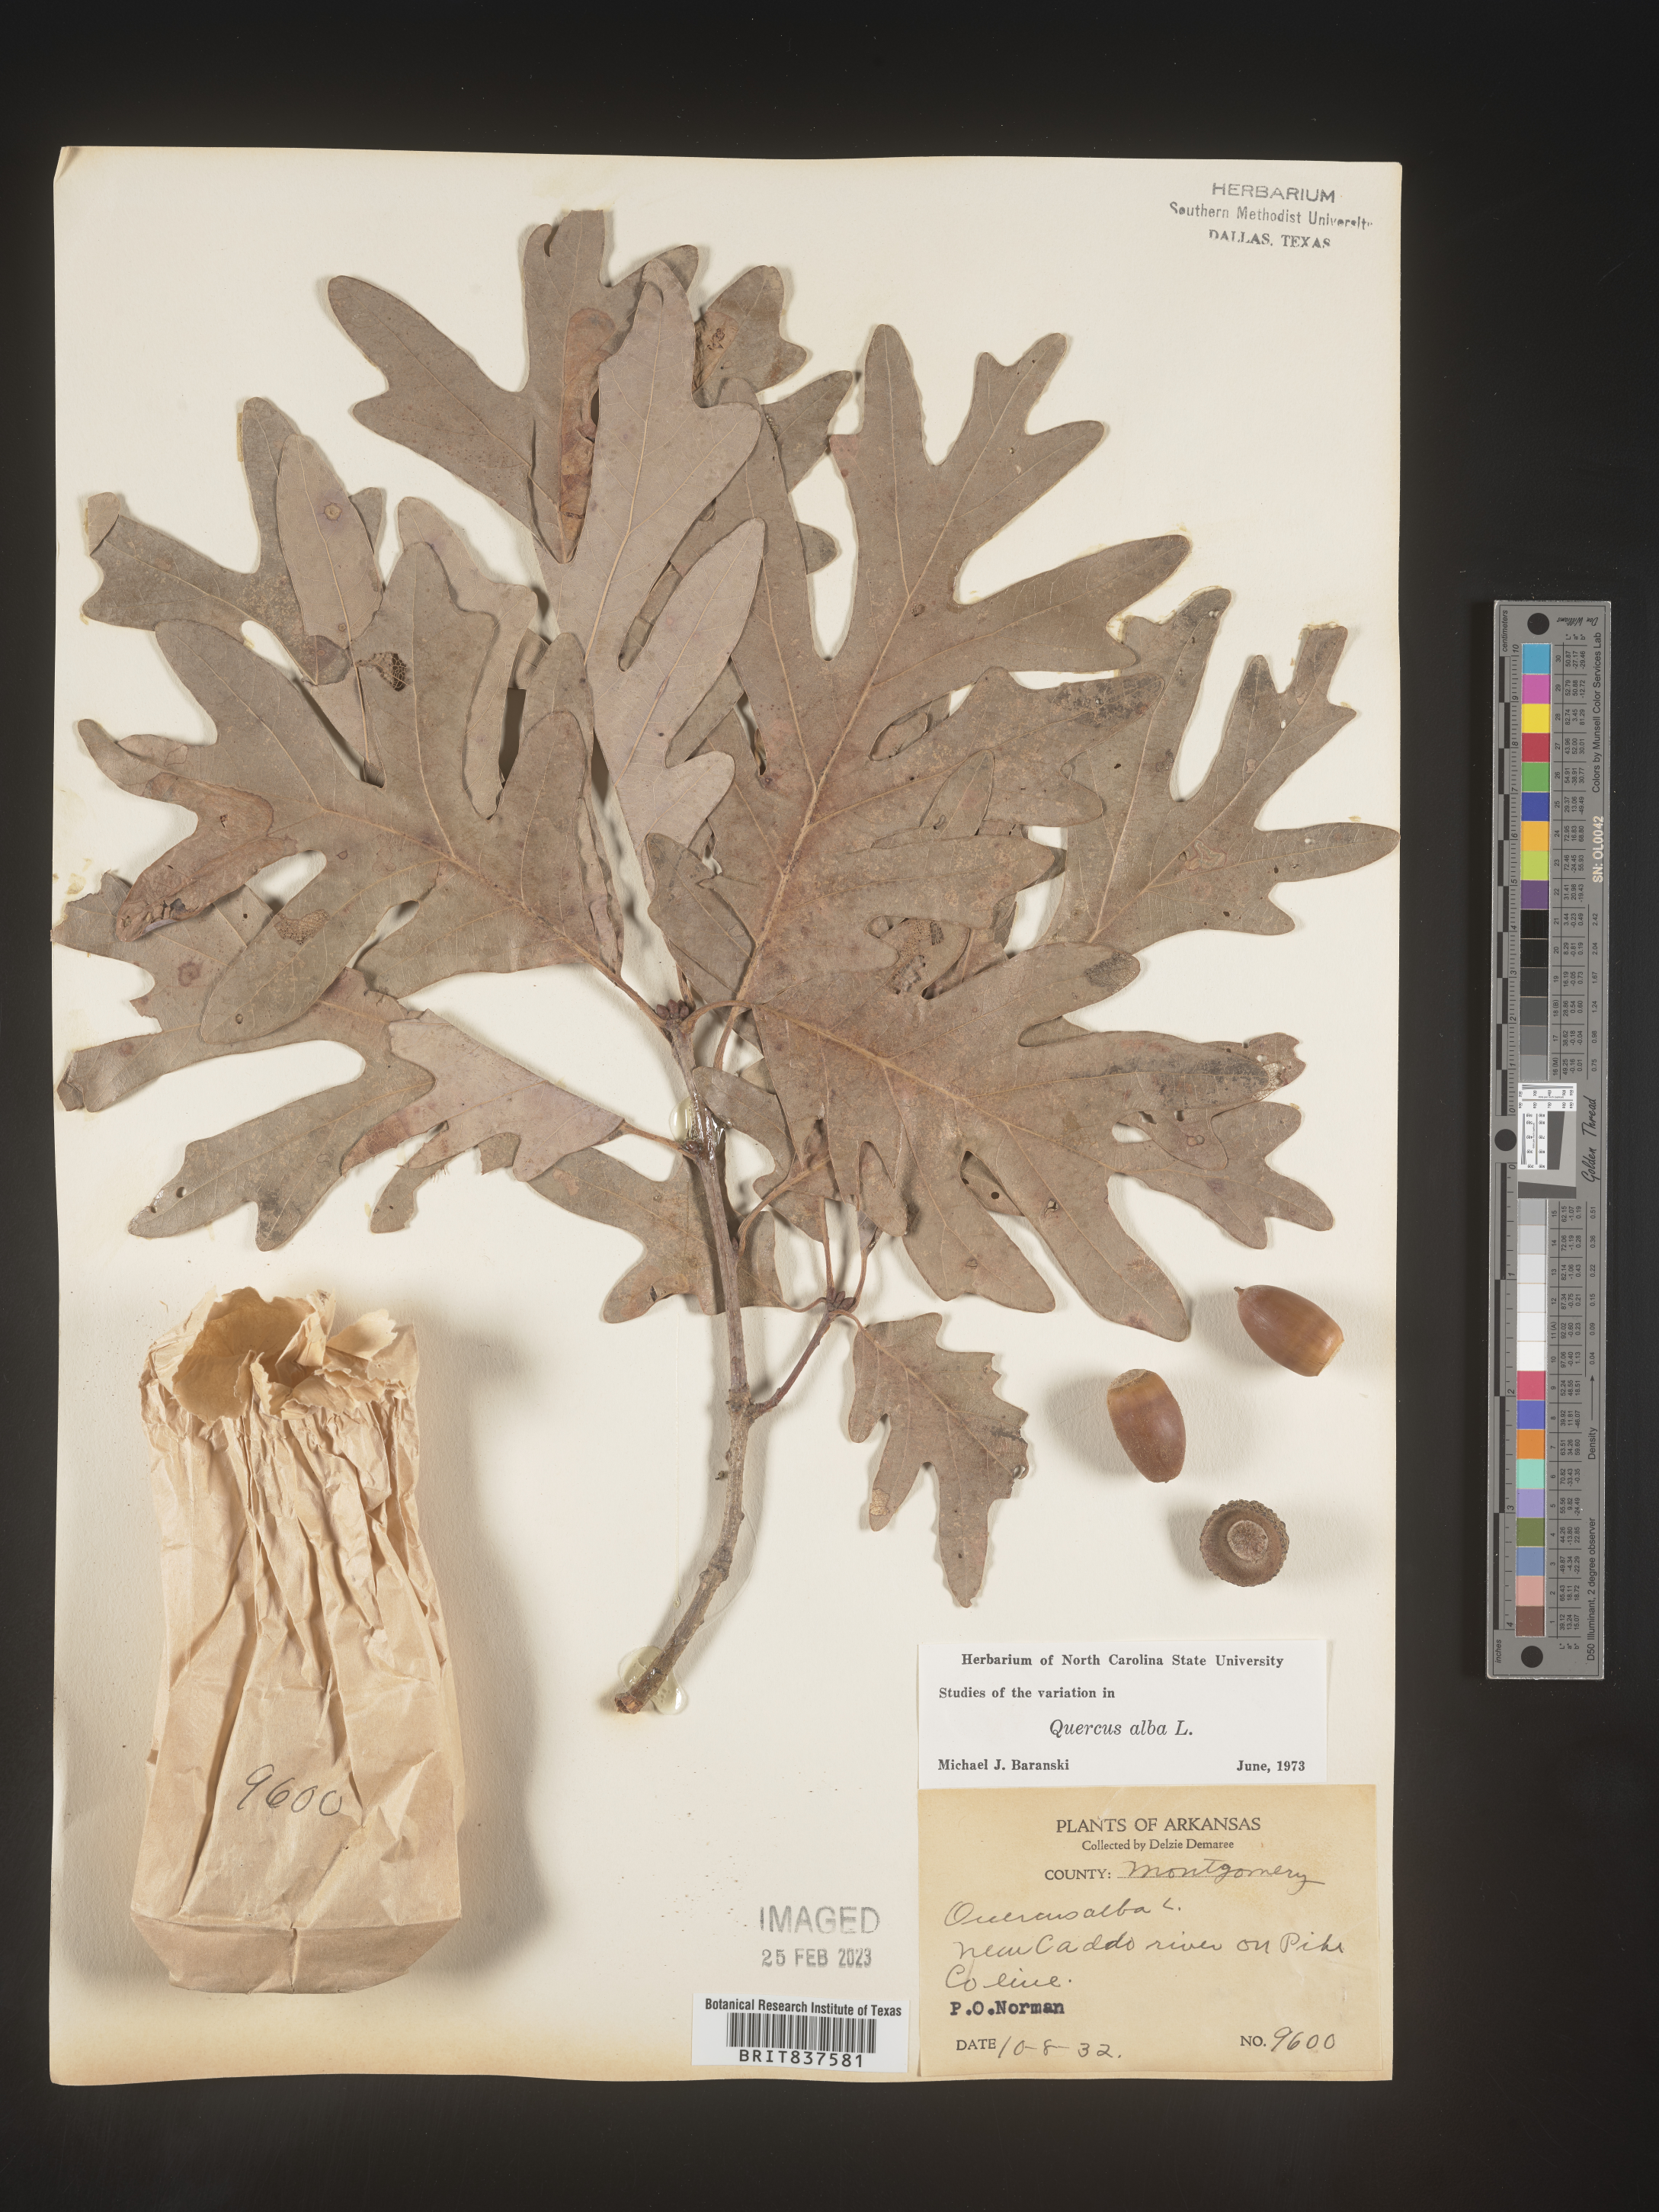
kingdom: Plantae
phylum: Tracheophyta
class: Magnoliopsida
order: Fagales
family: Fagaceae
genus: Quercus
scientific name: Quercus alba
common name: White oak
